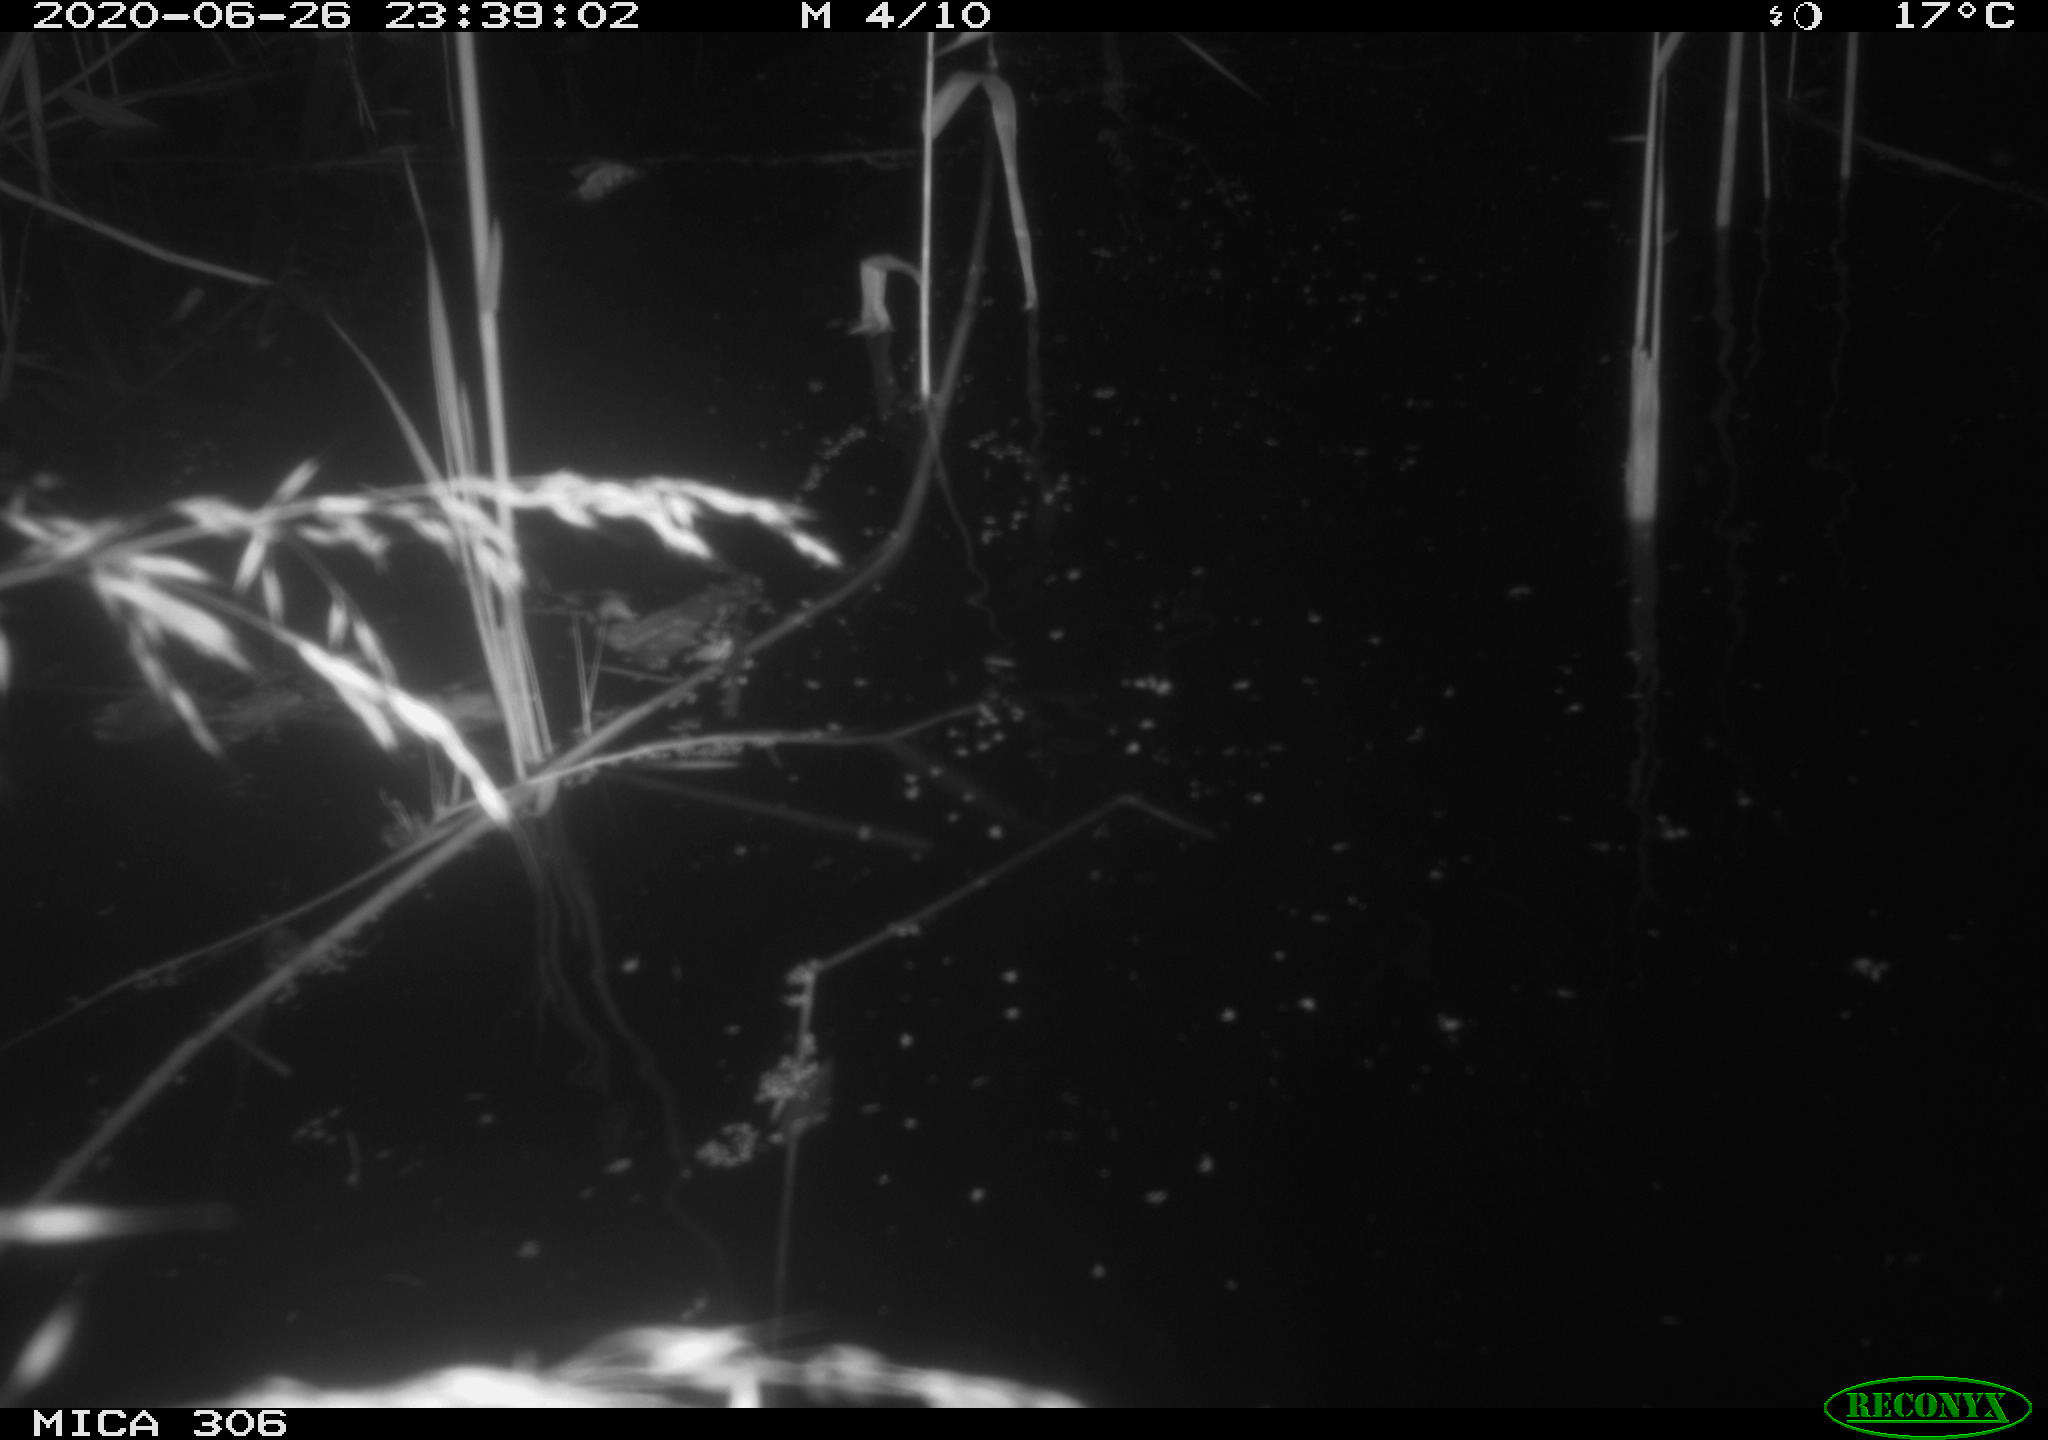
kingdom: Animalia
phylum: Chordata
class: Mammalia
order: Rodentia
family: Muridae
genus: Rattus
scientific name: Rattus norvegicus
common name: Brown rat
